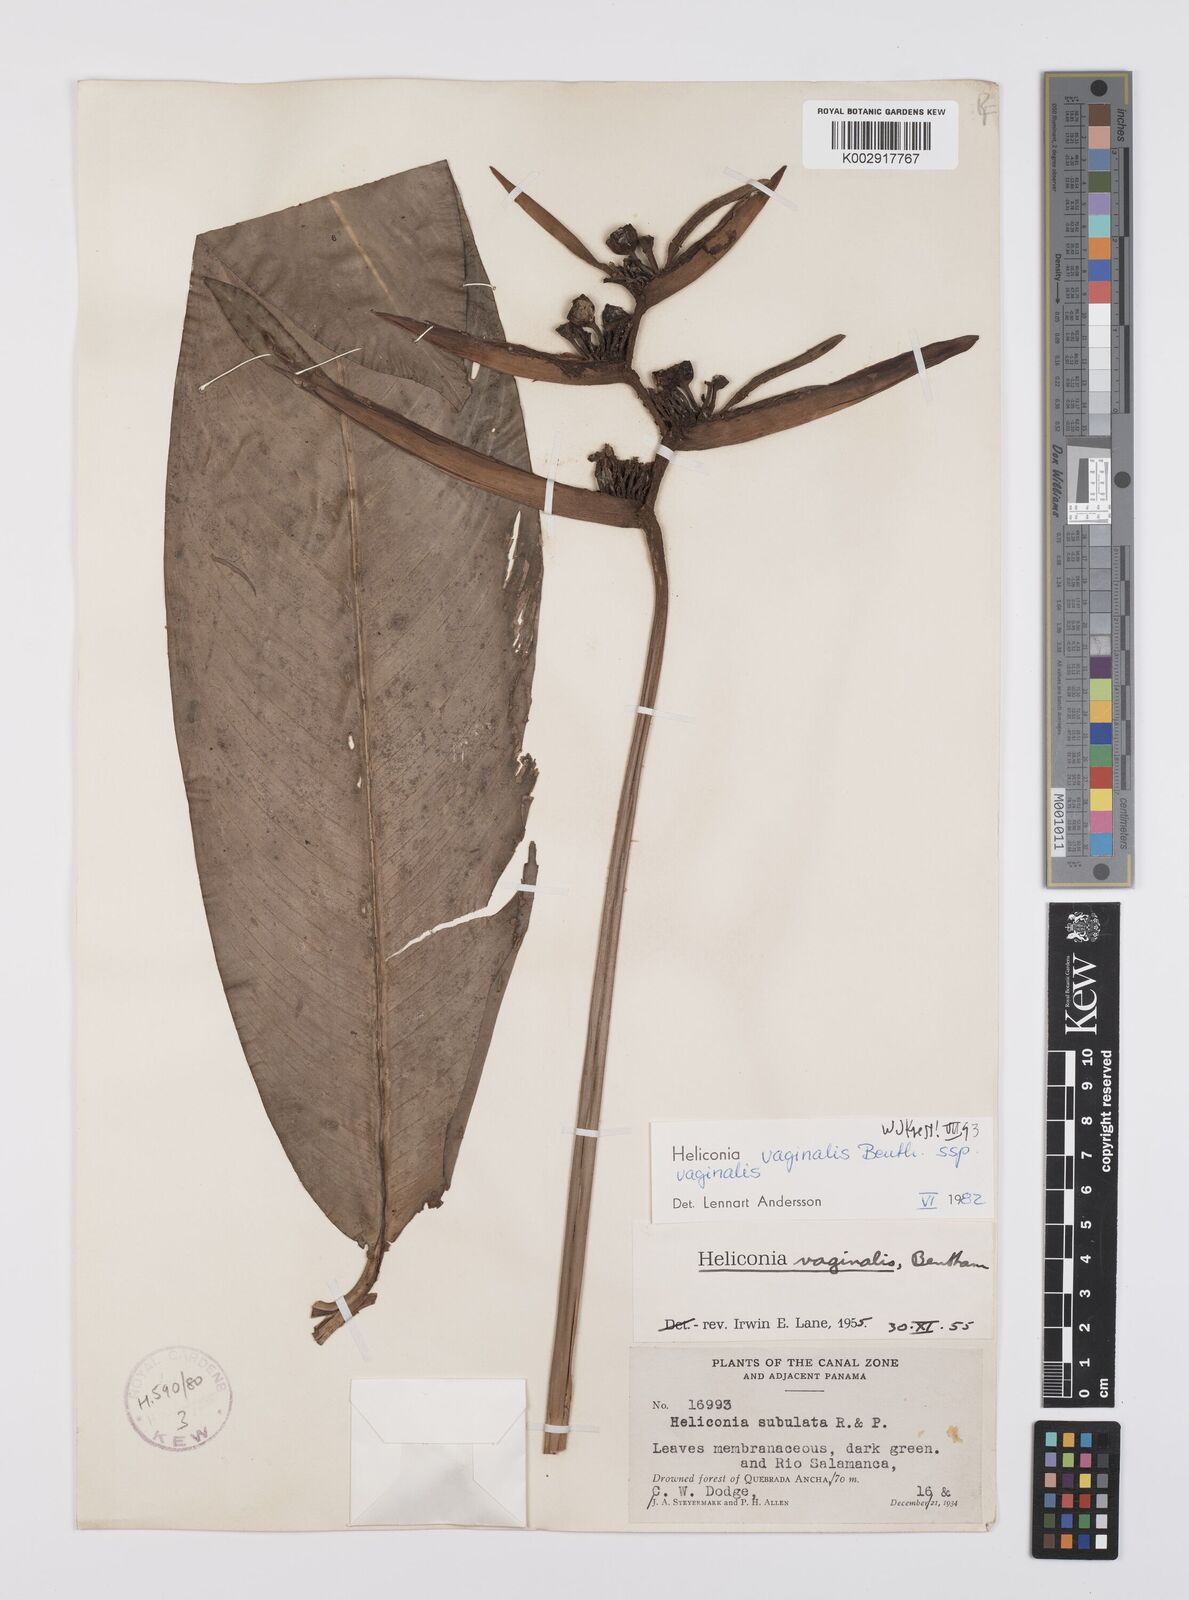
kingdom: Plantae
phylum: Tracheophyta
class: Liliopsida
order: Zingiberales
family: Heliconiaceae
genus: Heliconia
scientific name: Heliconia vaginalis
